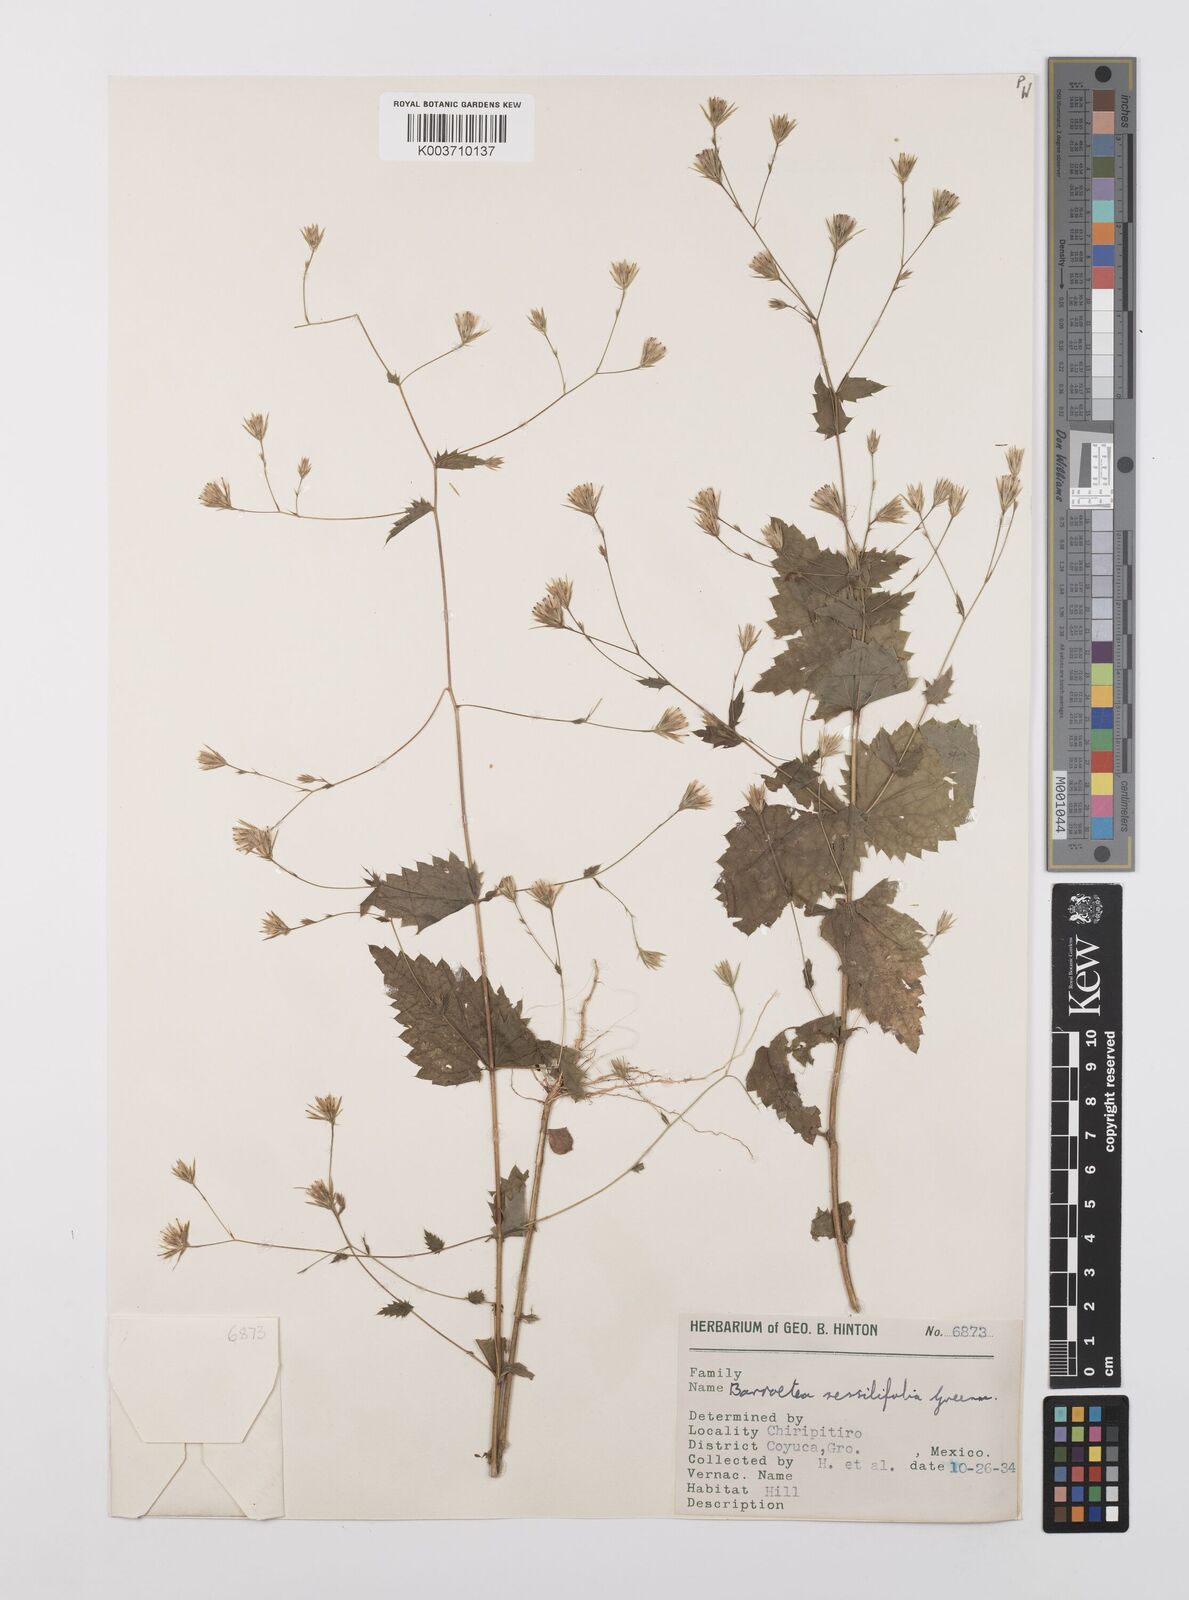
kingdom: Plantae
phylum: Tracheophyta
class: Magnoliopsida
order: Asterales
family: Asteraceae
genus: Brickellia
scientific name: Brickellia pavonii
